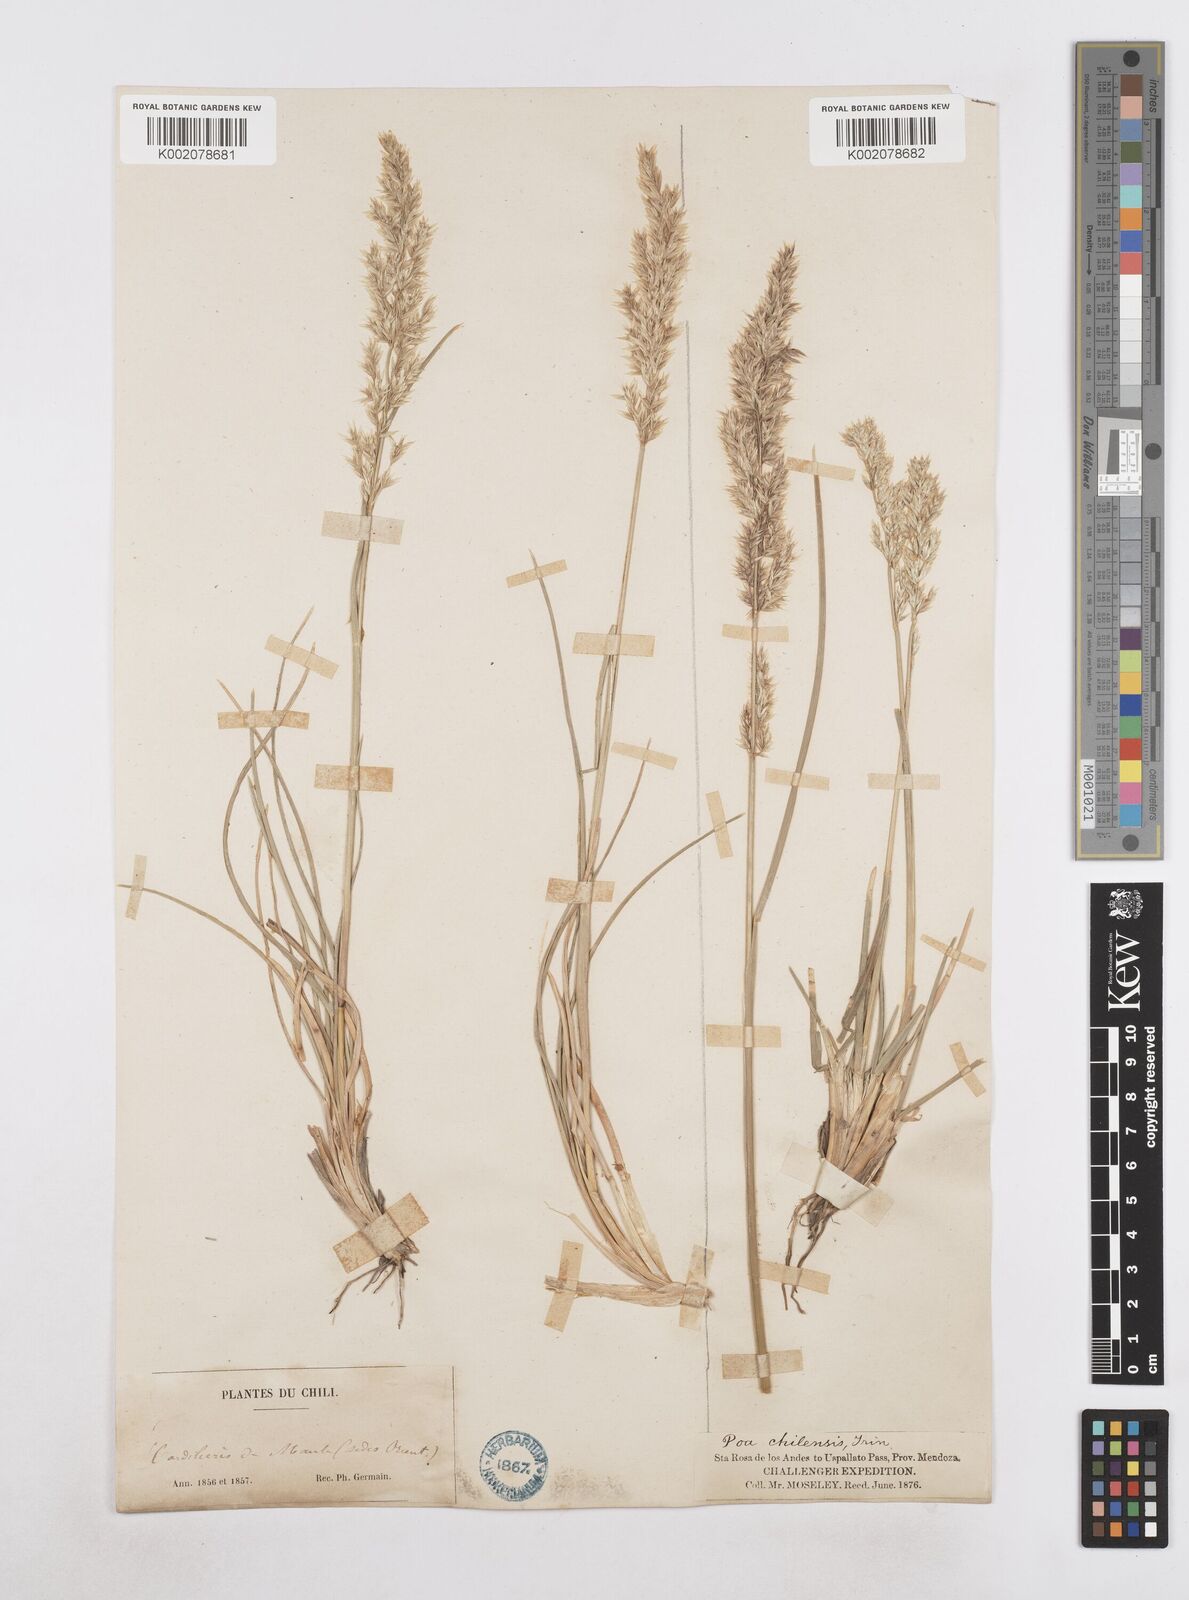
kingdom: Plantae
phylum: Tracheophyta
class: Liliopsida
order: Poales
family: Poaceae
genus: Poa
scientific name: Poa spiciformis
